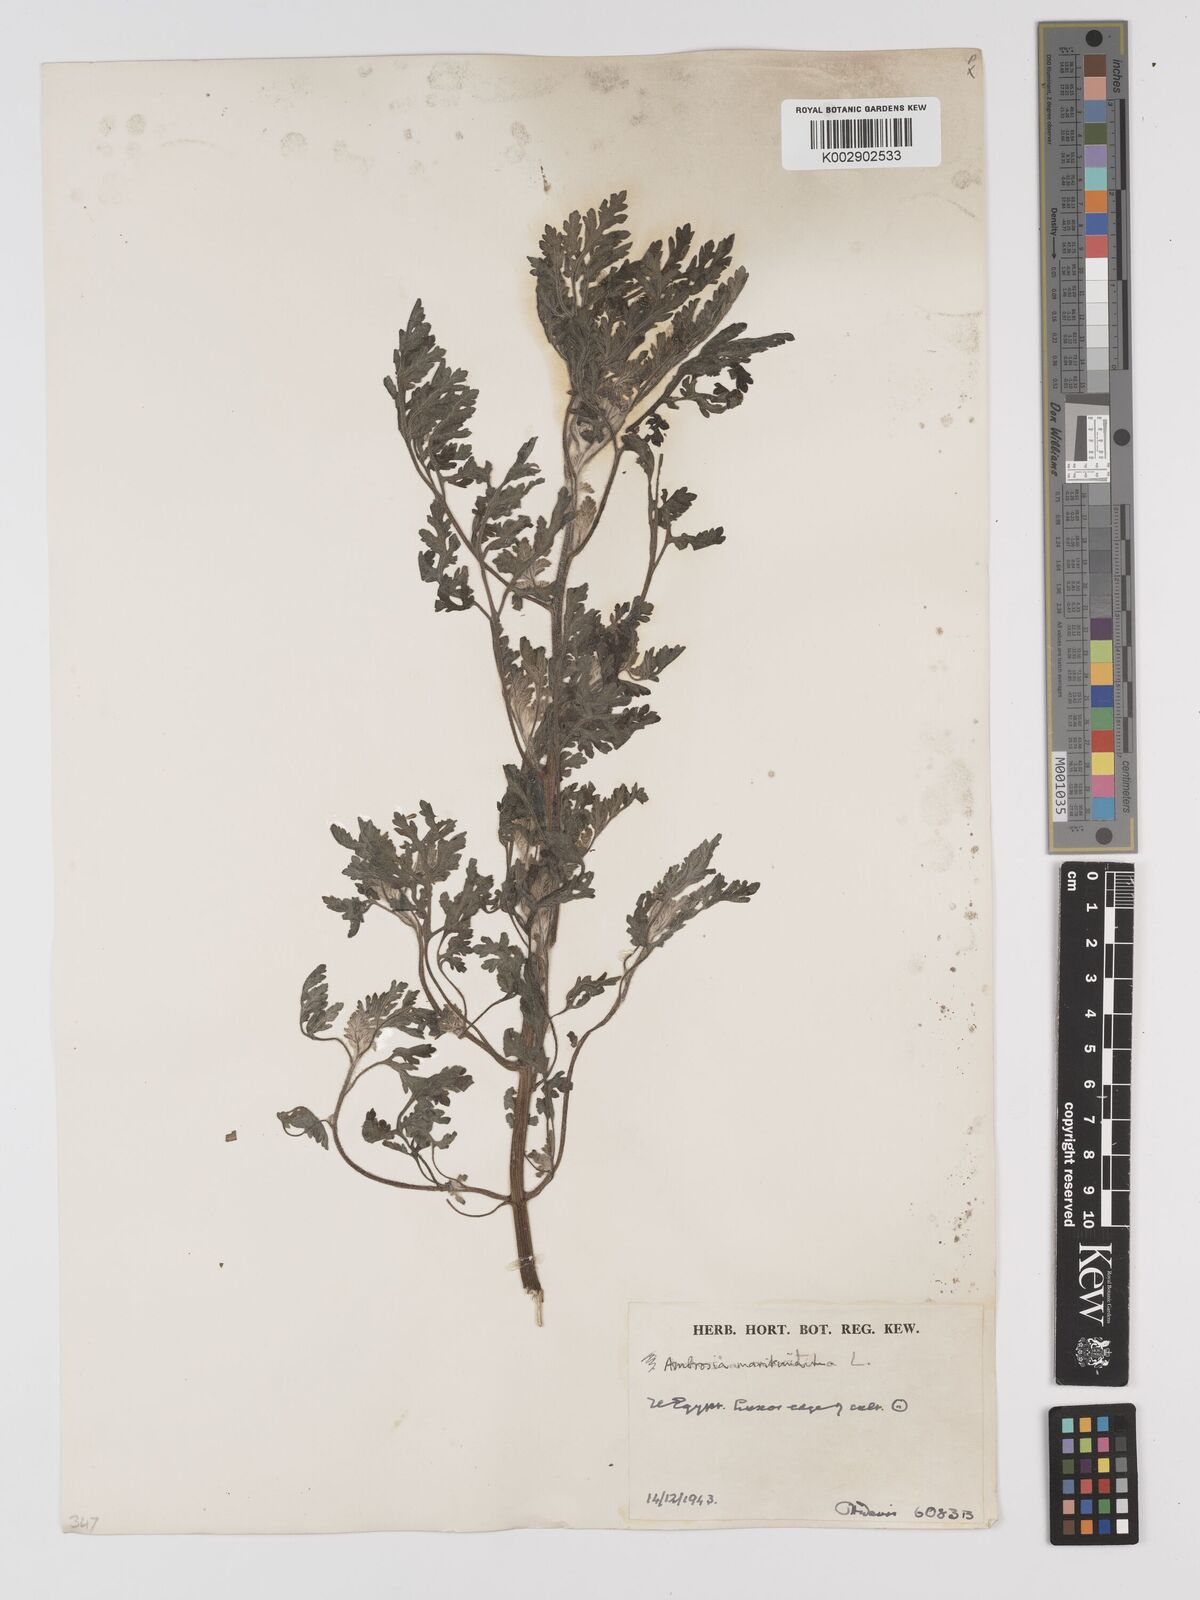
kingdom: Plantae
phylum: Tracheophyta
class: Magnoliopsida
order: Asterales
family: Asteraceae
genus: Ambrosia
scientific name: Ambrosia maritima
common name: Sea ambrosia
